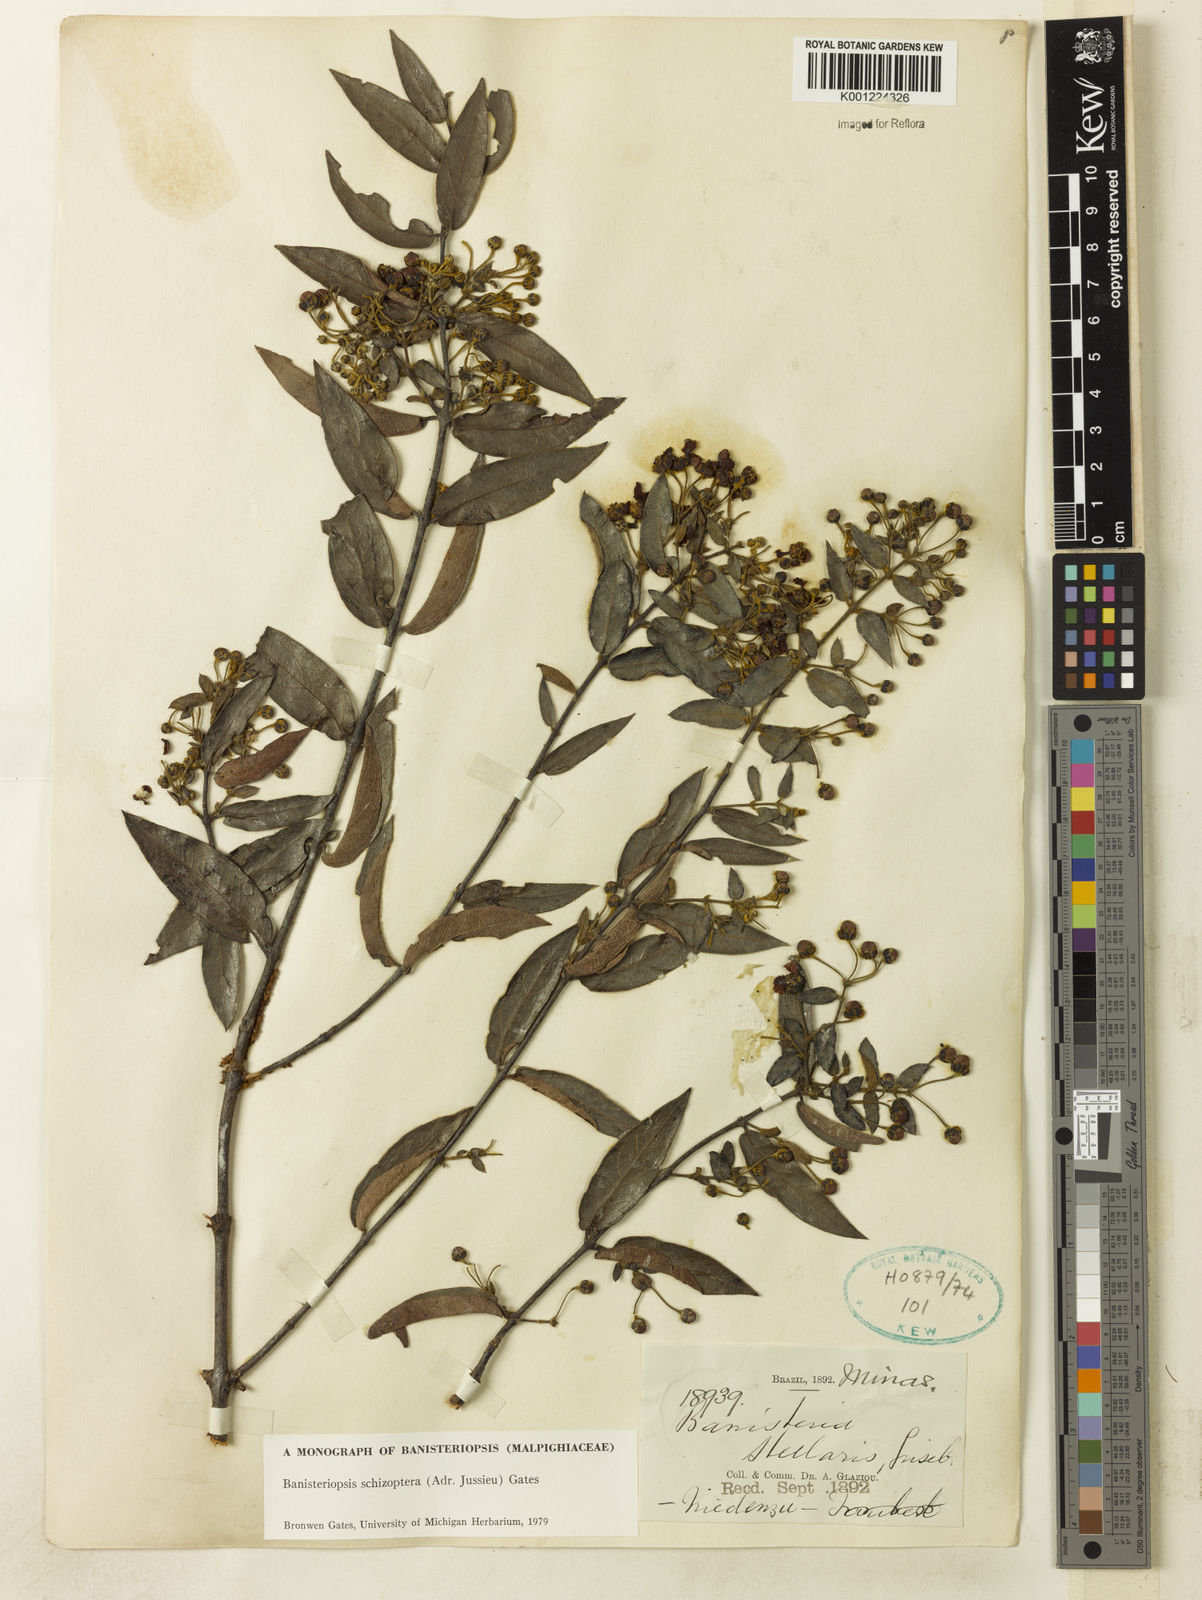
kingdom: Plantae
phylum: Tracheophyta
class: Magnoliopsida
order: Malpighiales
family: Malpighiaceae
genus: Banisteriopsis
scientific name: Banisteriopsis schizoptera
